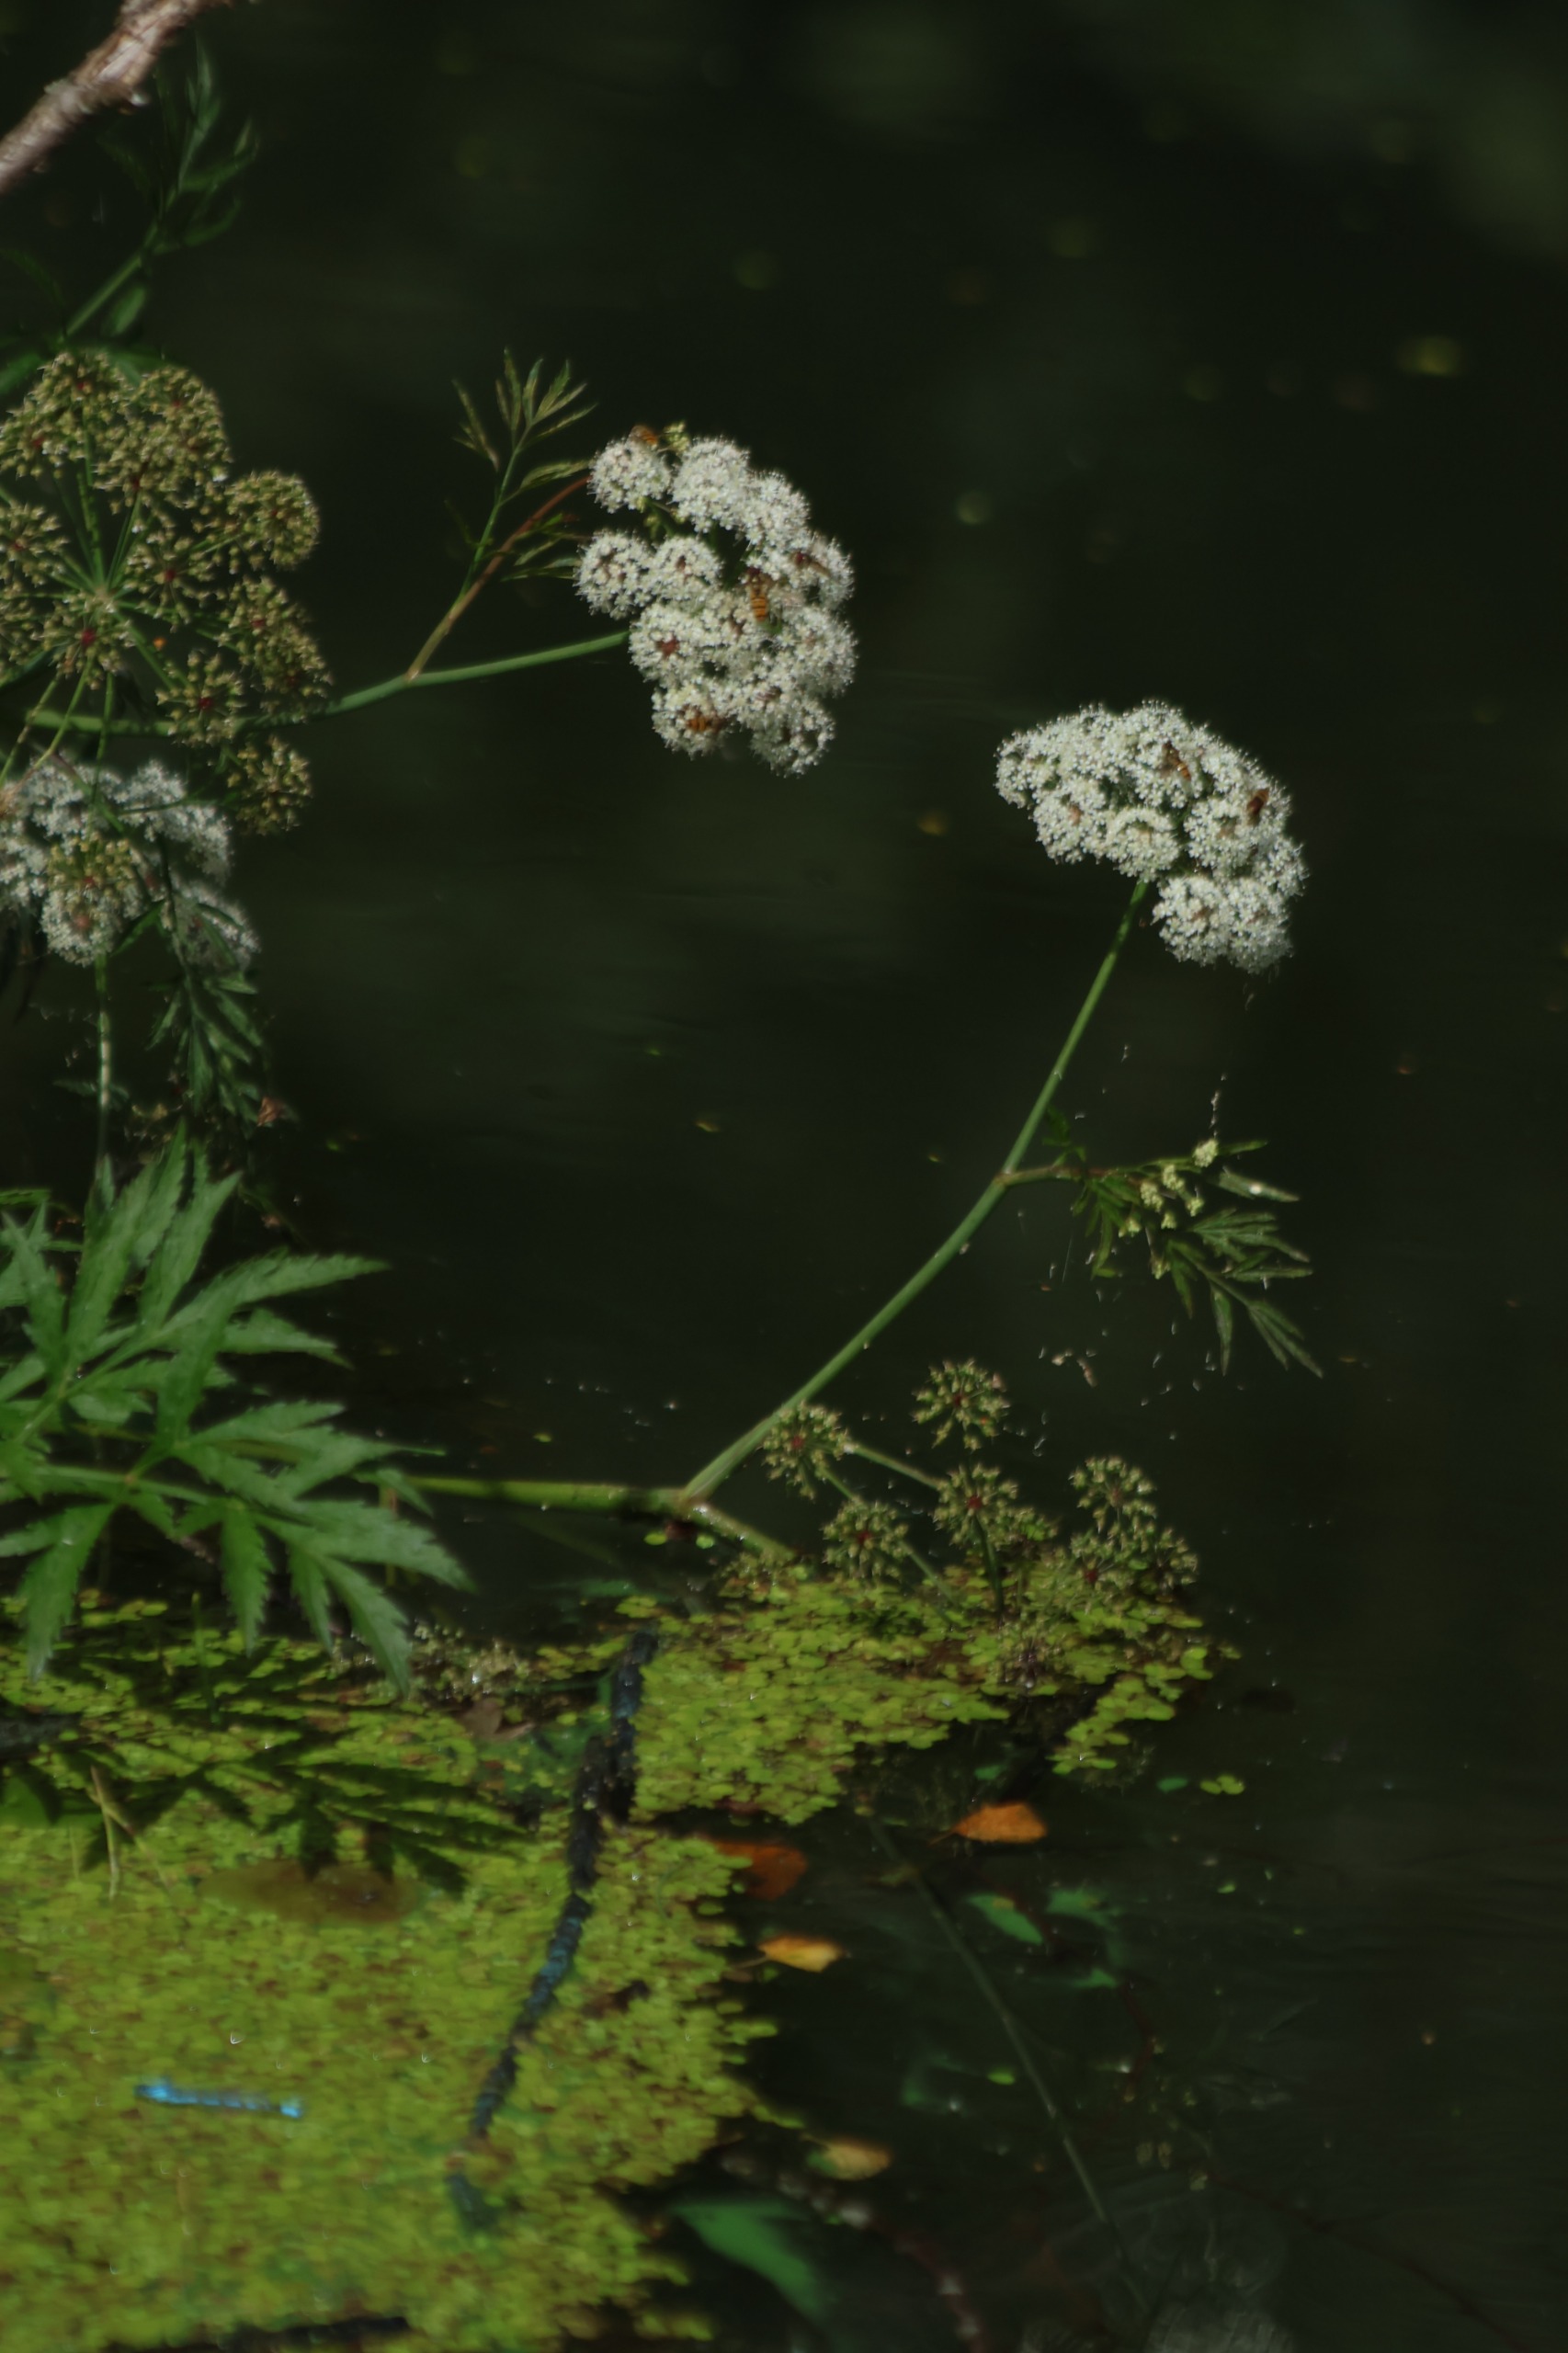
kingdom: Plantae
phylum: Tracheophyta
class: Magnoliopsida
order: Apiales
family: Apiaceae
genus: Cicuta
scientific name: Cicuta virosa
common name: Gifttyde
